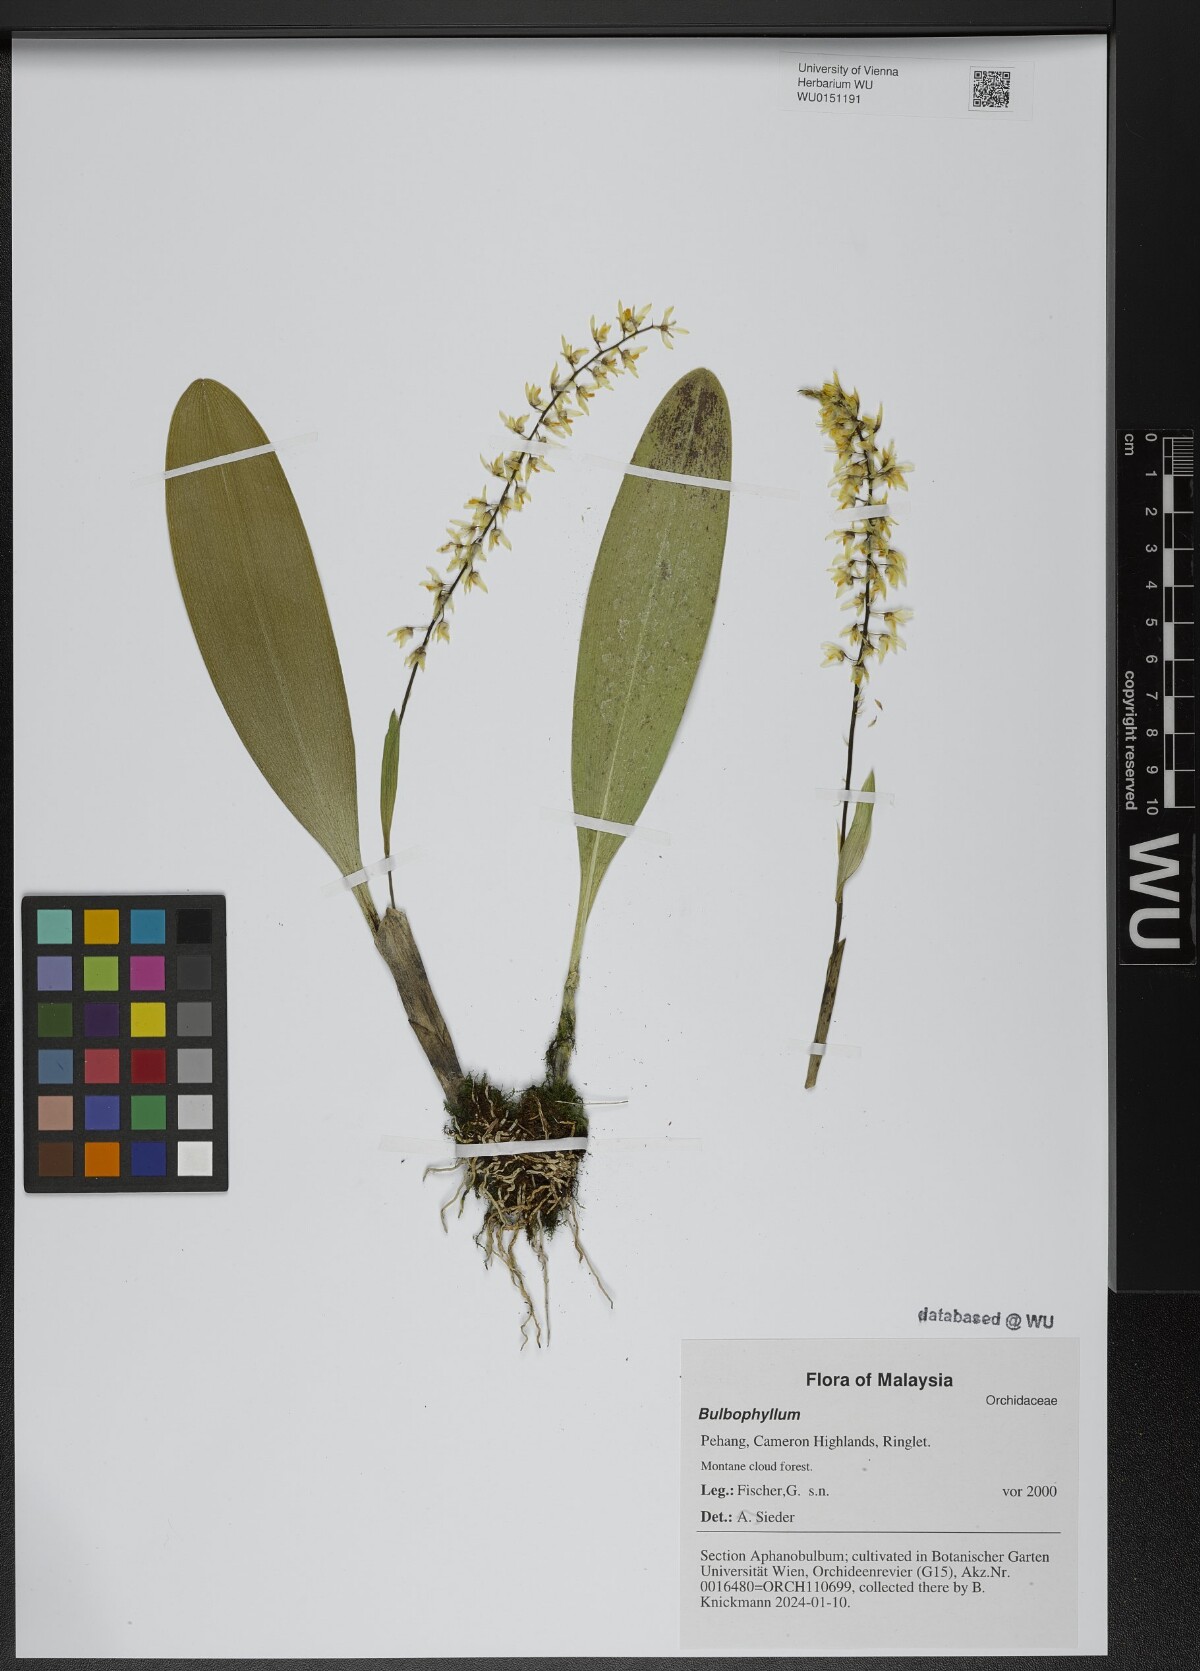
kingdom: Plantae
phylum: Tracheophyta
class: Liliopsida
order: Asparagales
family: Orchidaceae
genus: Bulbophyllum
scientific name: Bulbophyllum
